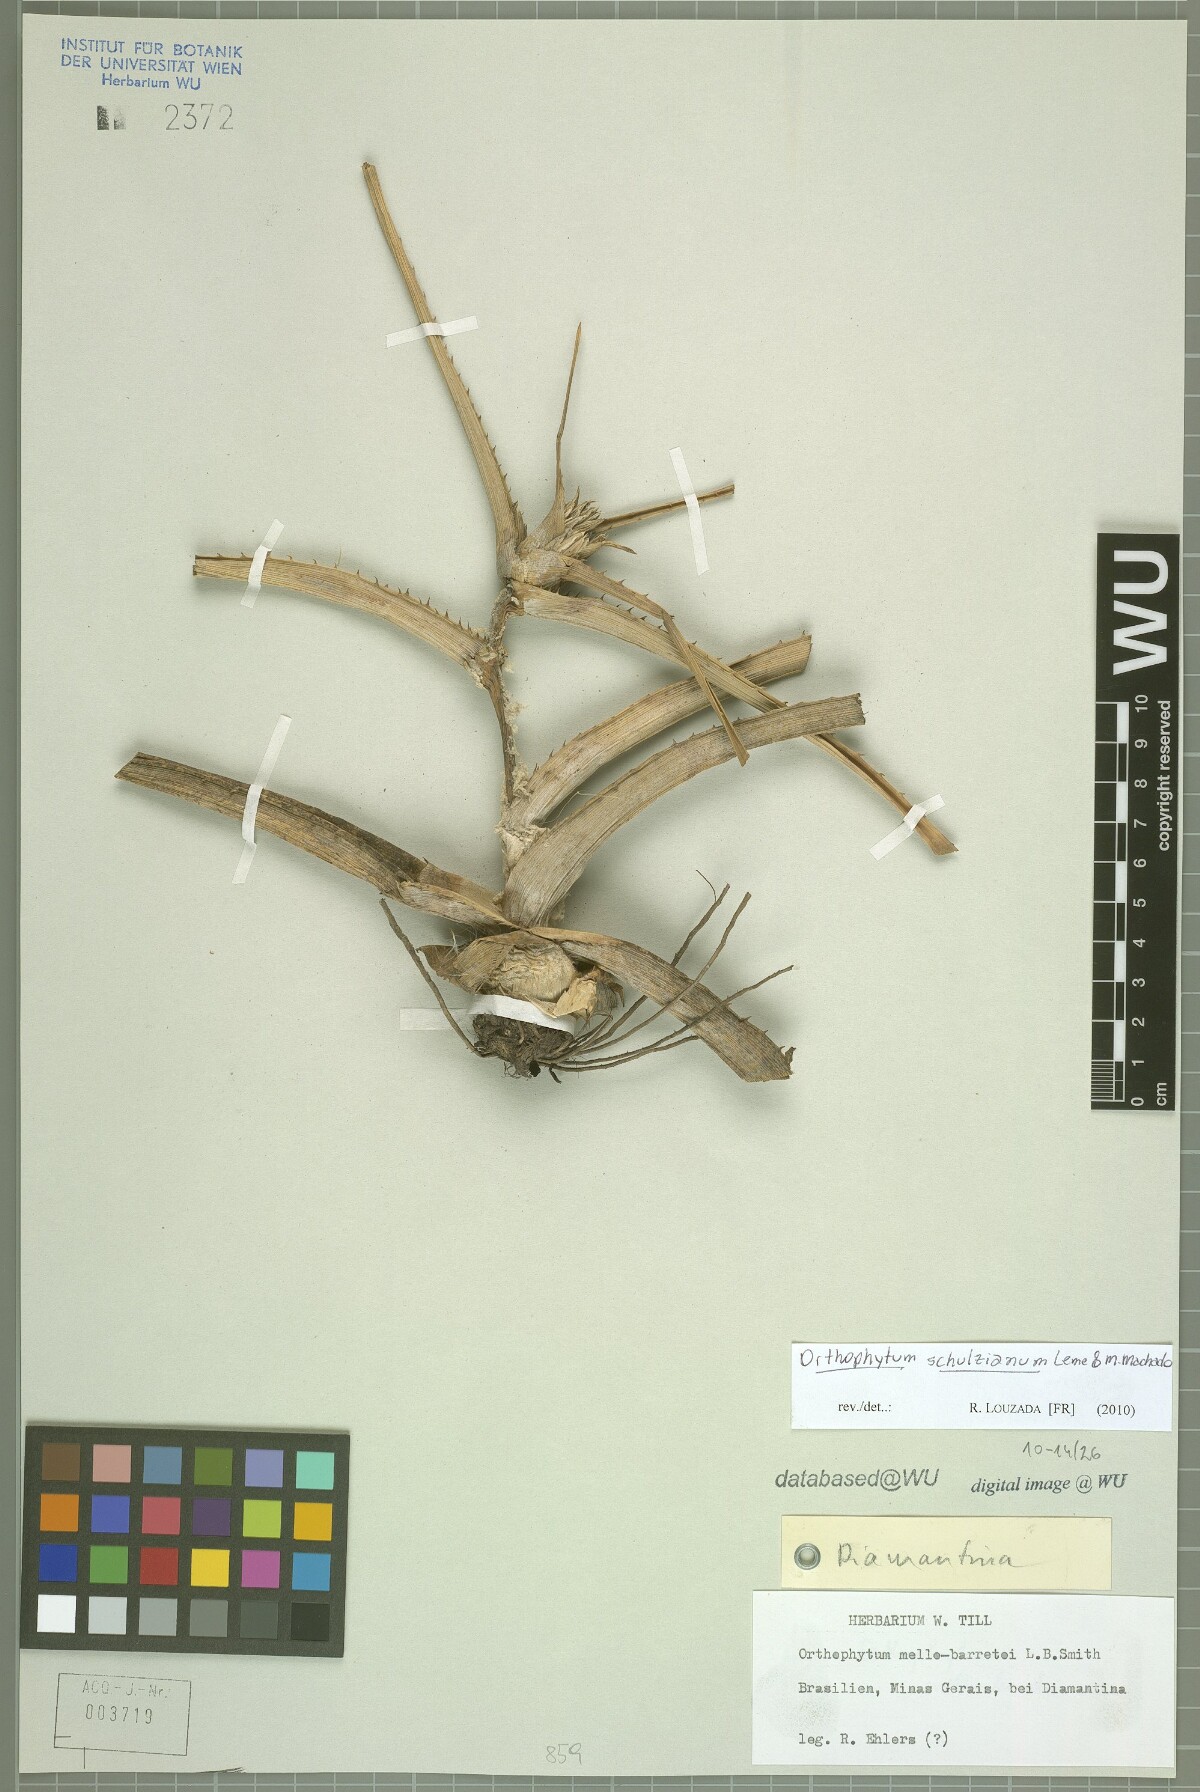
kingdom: Plantae
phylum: Tracheophyta
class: Liliopsida
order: Poales
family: Bromeliaceae
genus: Orthophytum
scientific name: Orthophytum schulzianum
